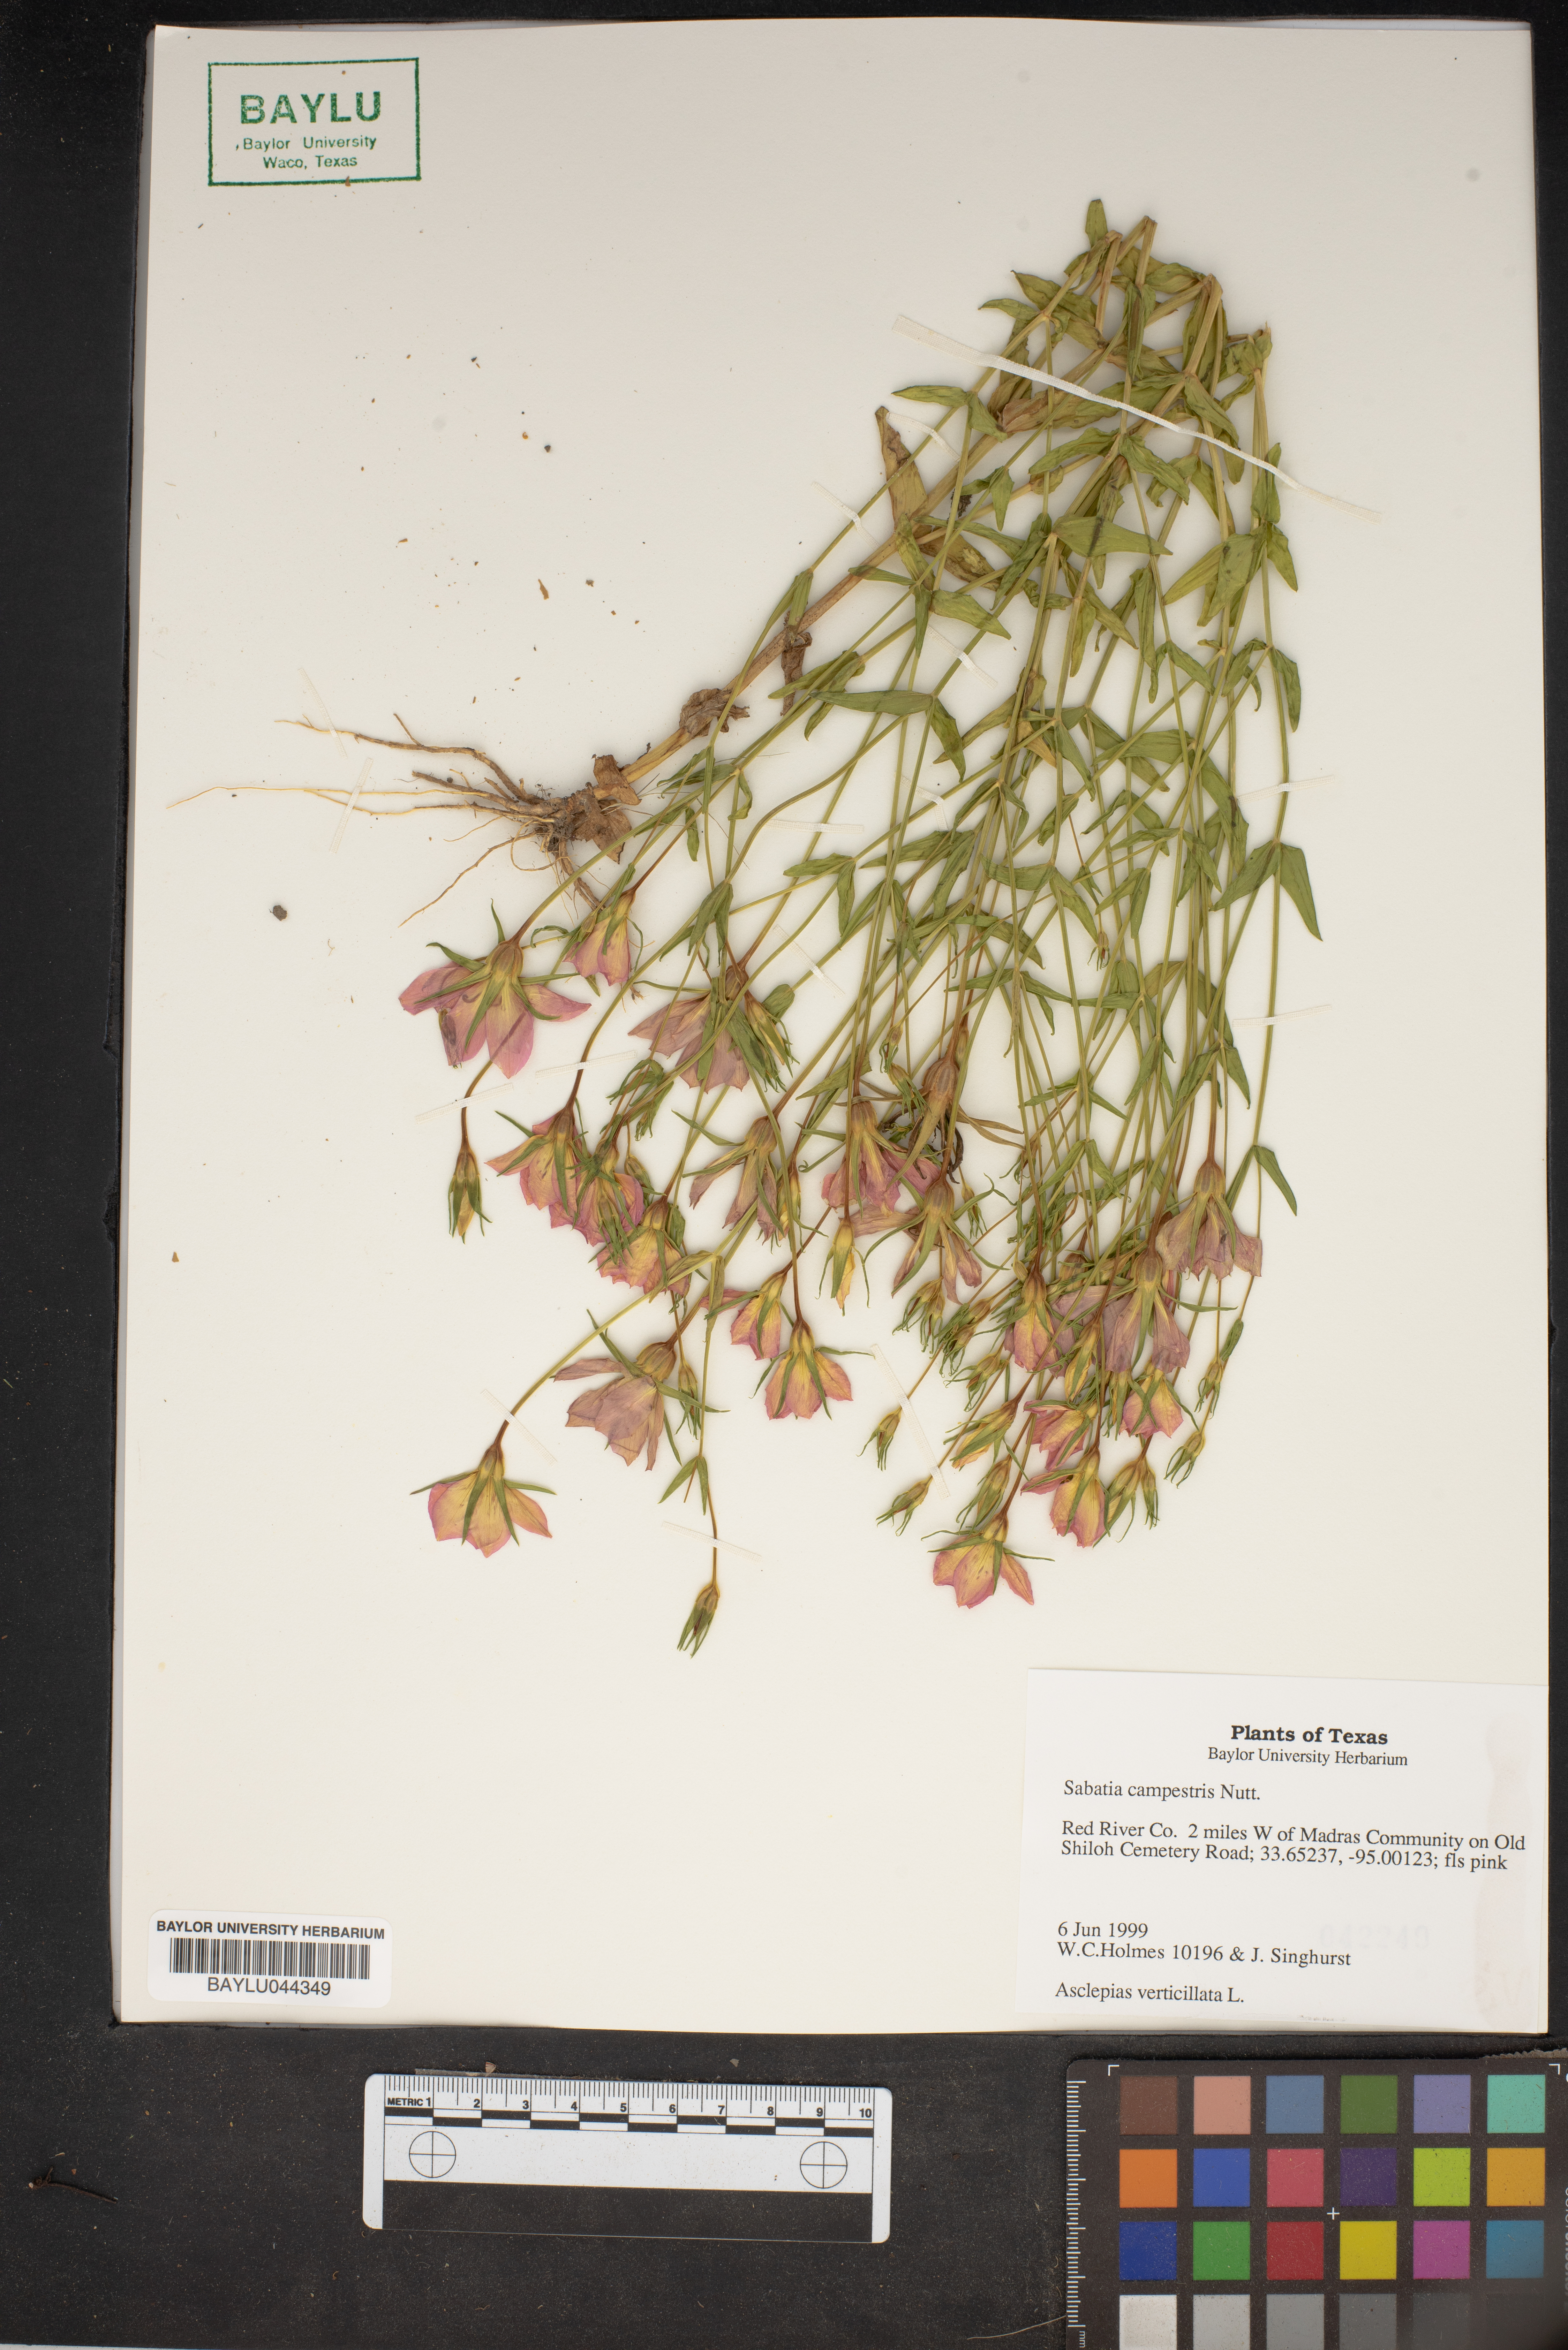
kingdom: Plantae
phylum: Tracheophyta
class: Magnoliopsida
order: Gentianales
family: Gentianaceae
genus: Sabatia
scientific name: Sabatia campestris
